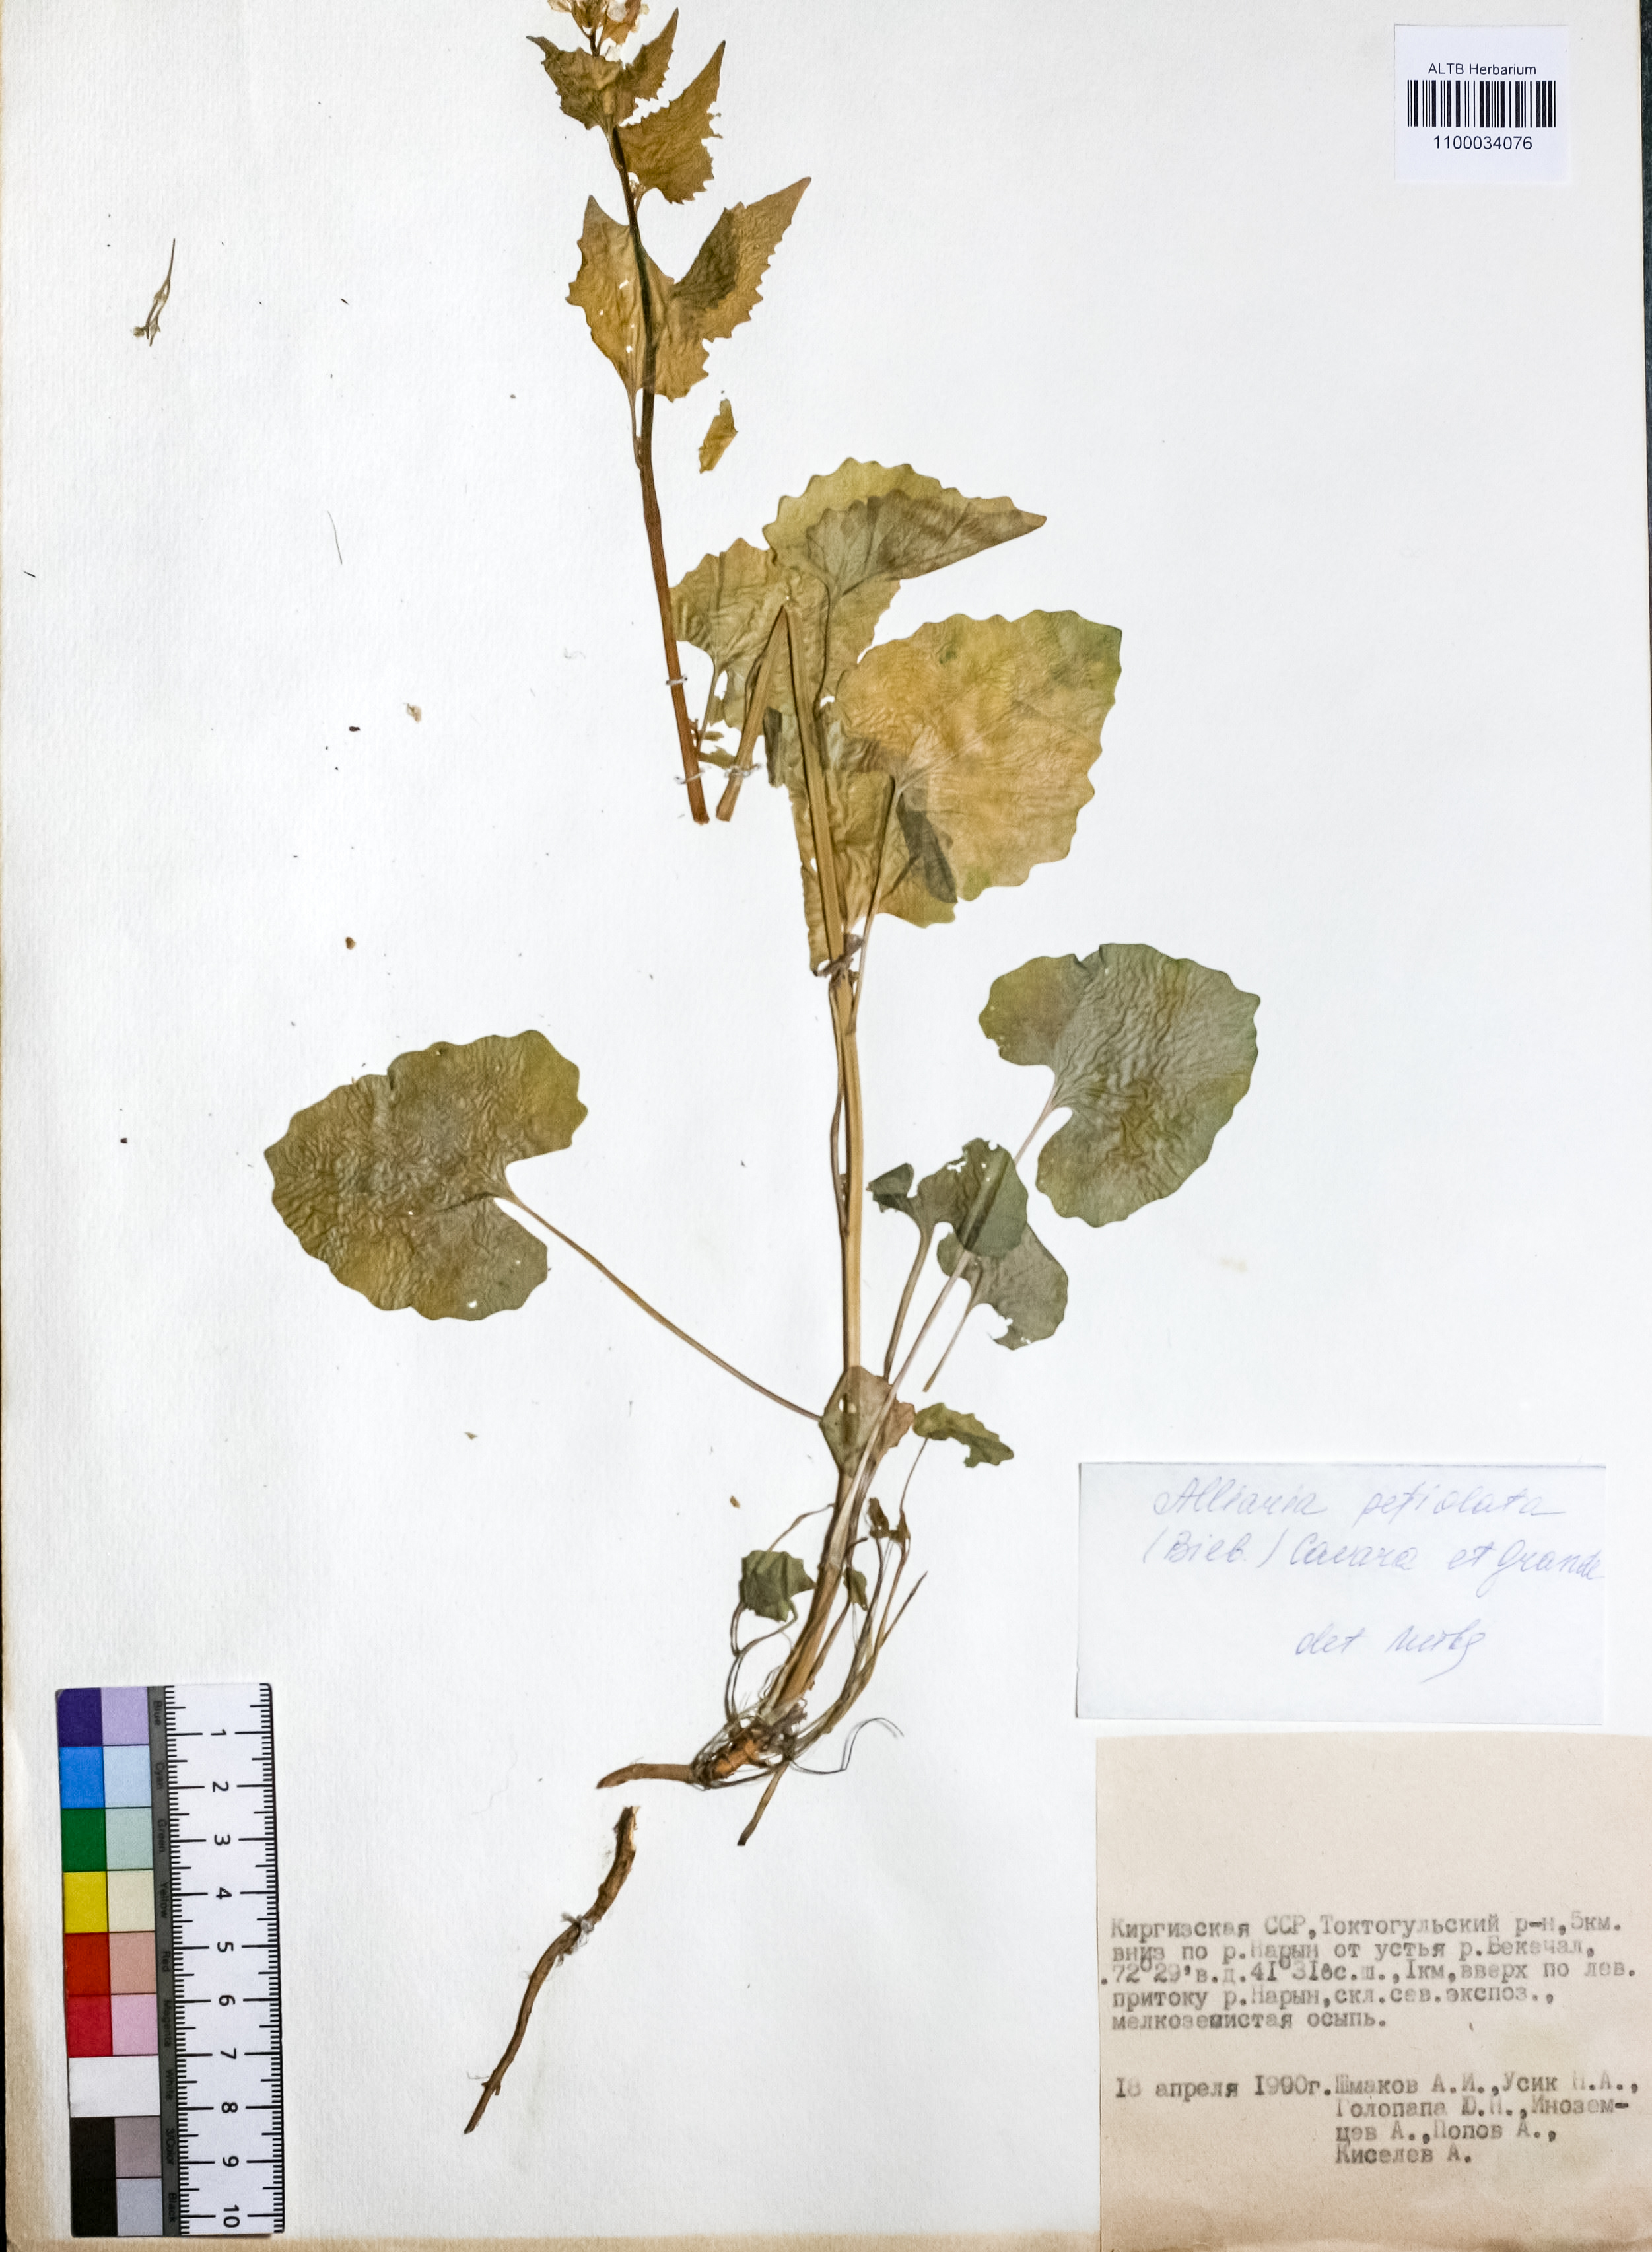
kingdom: Plantae
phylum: Tracheophyta
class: Magnoliopsida
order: Brassicales
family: Brassicaceae
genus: Alliaria
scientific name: Alliaria petiolata
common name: Garlic mustard
